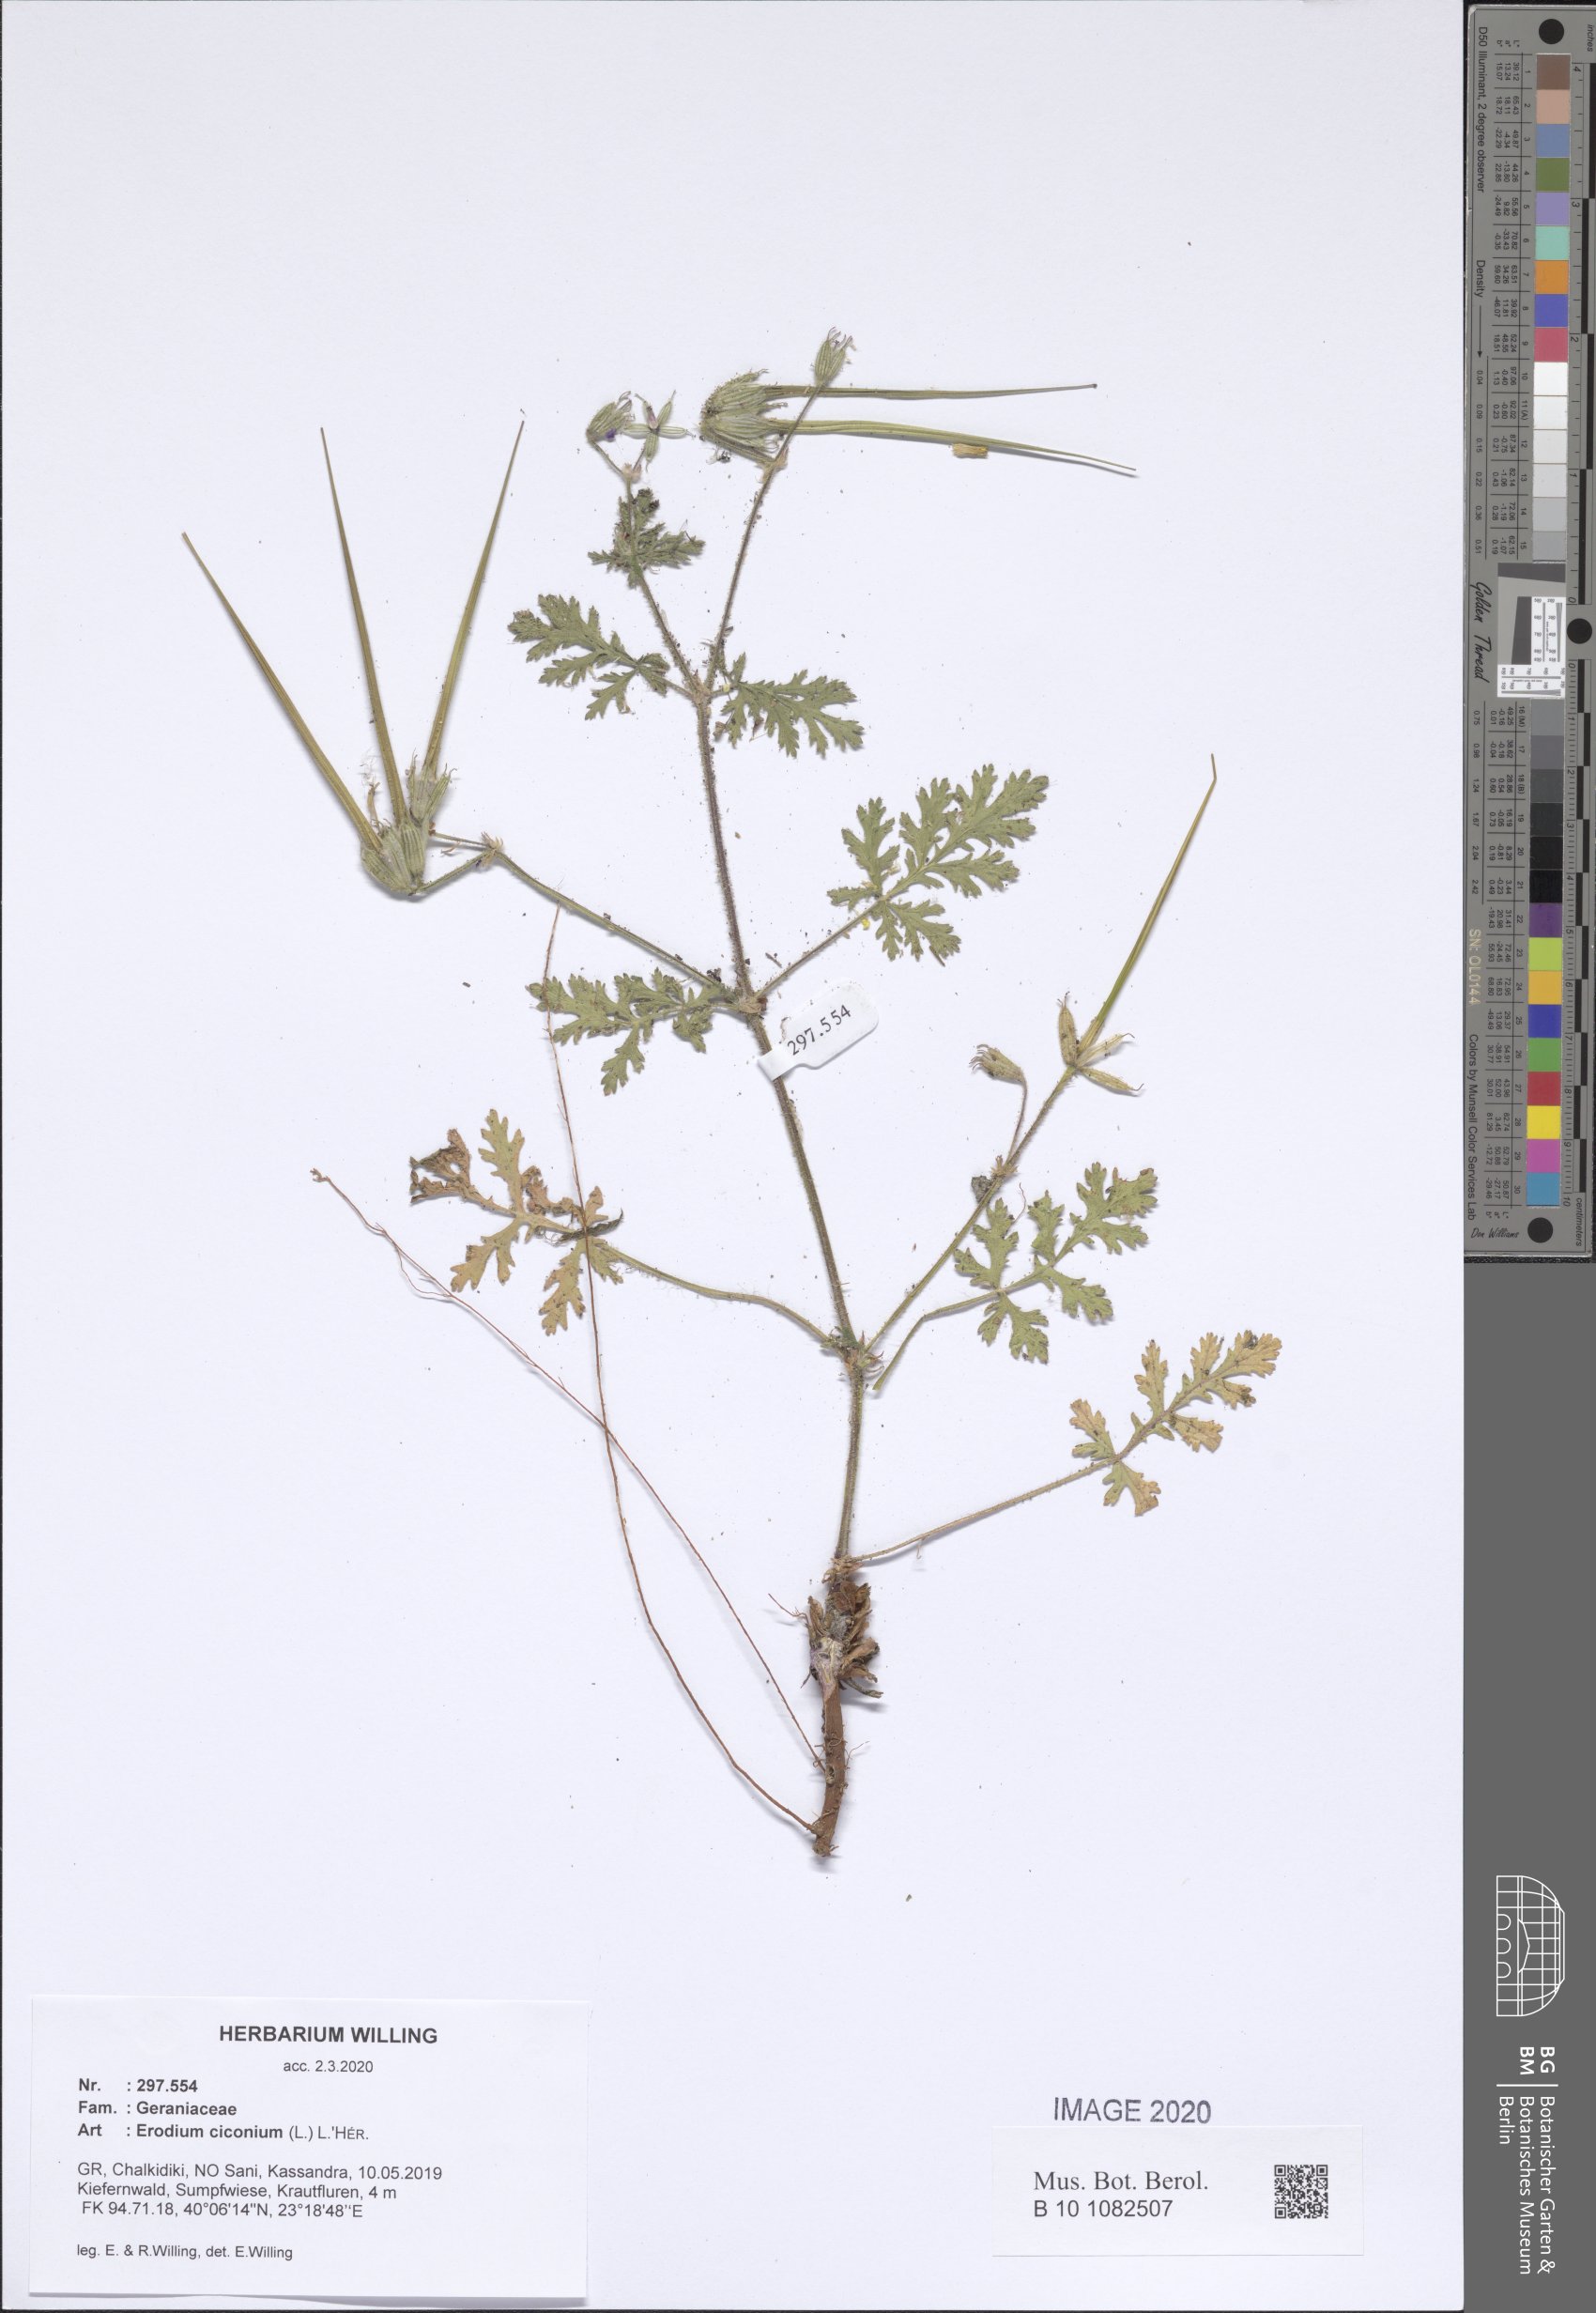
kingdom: Plantae
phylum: Tracheophyta
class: Magnoliopsida
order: Geraniales
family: Geraniaceae
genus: Erodium
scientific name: Erodium ciconium
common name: Common stork's bill
